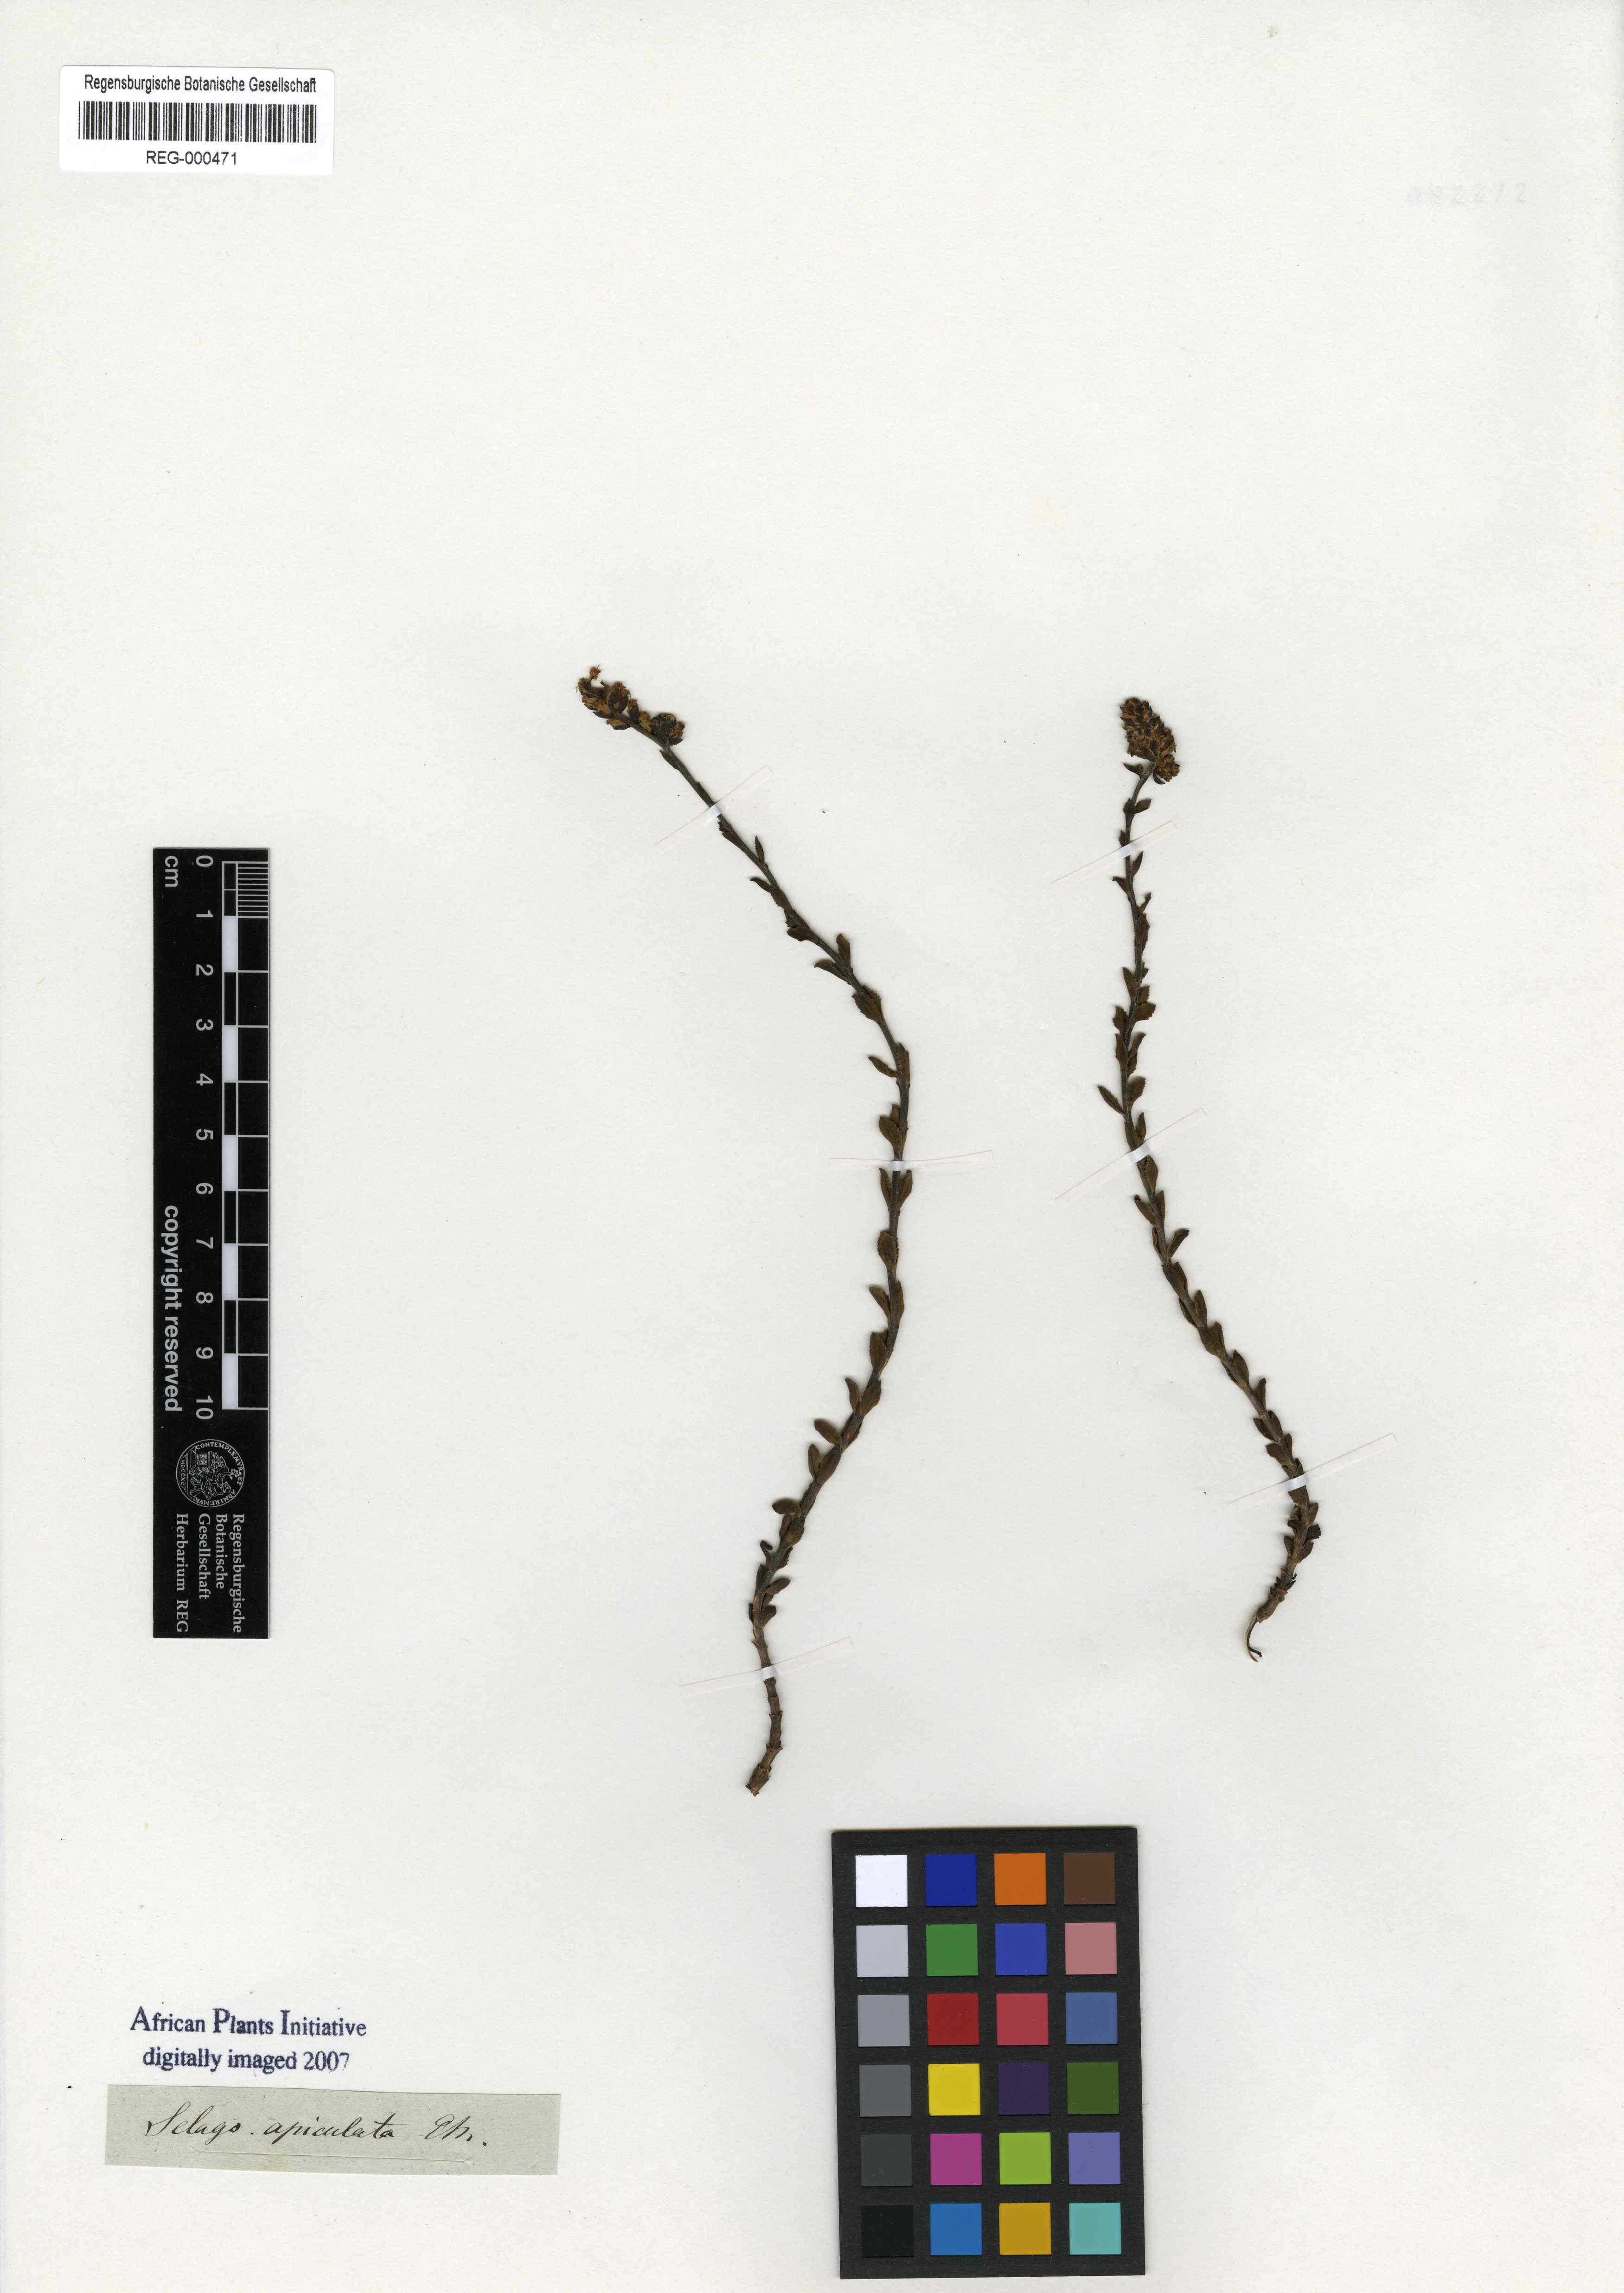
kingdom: Plantae
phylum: Tracheophyta
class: Magnoliopsida
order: Lamiales
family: Scrophulariaceae
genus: Glumicalyx
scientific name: Glumicalyx apiculatus
